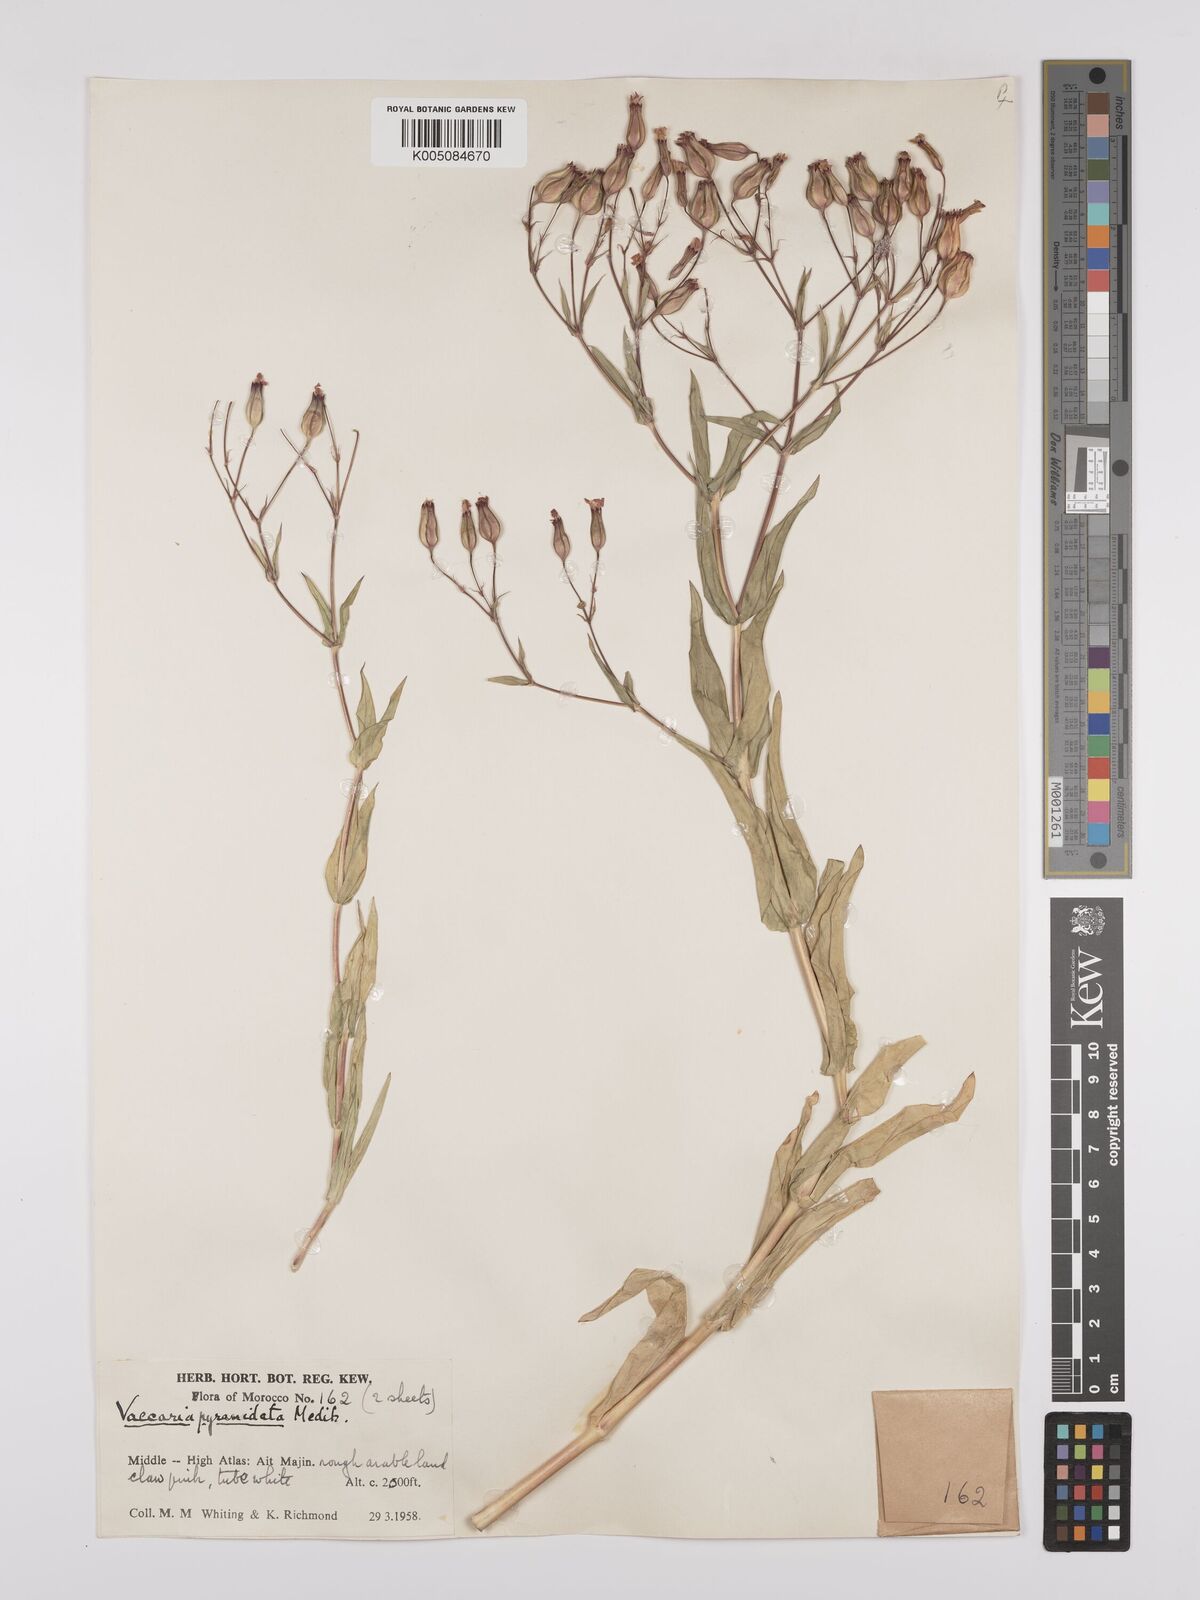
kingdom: Plantae
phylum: Tracheophyta
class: Magnoliopsida
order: Caryophyllales
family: Caryophyllaceae
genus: Gypsophila
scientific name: Gypsophila vaccaria
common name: Cow soapwort
